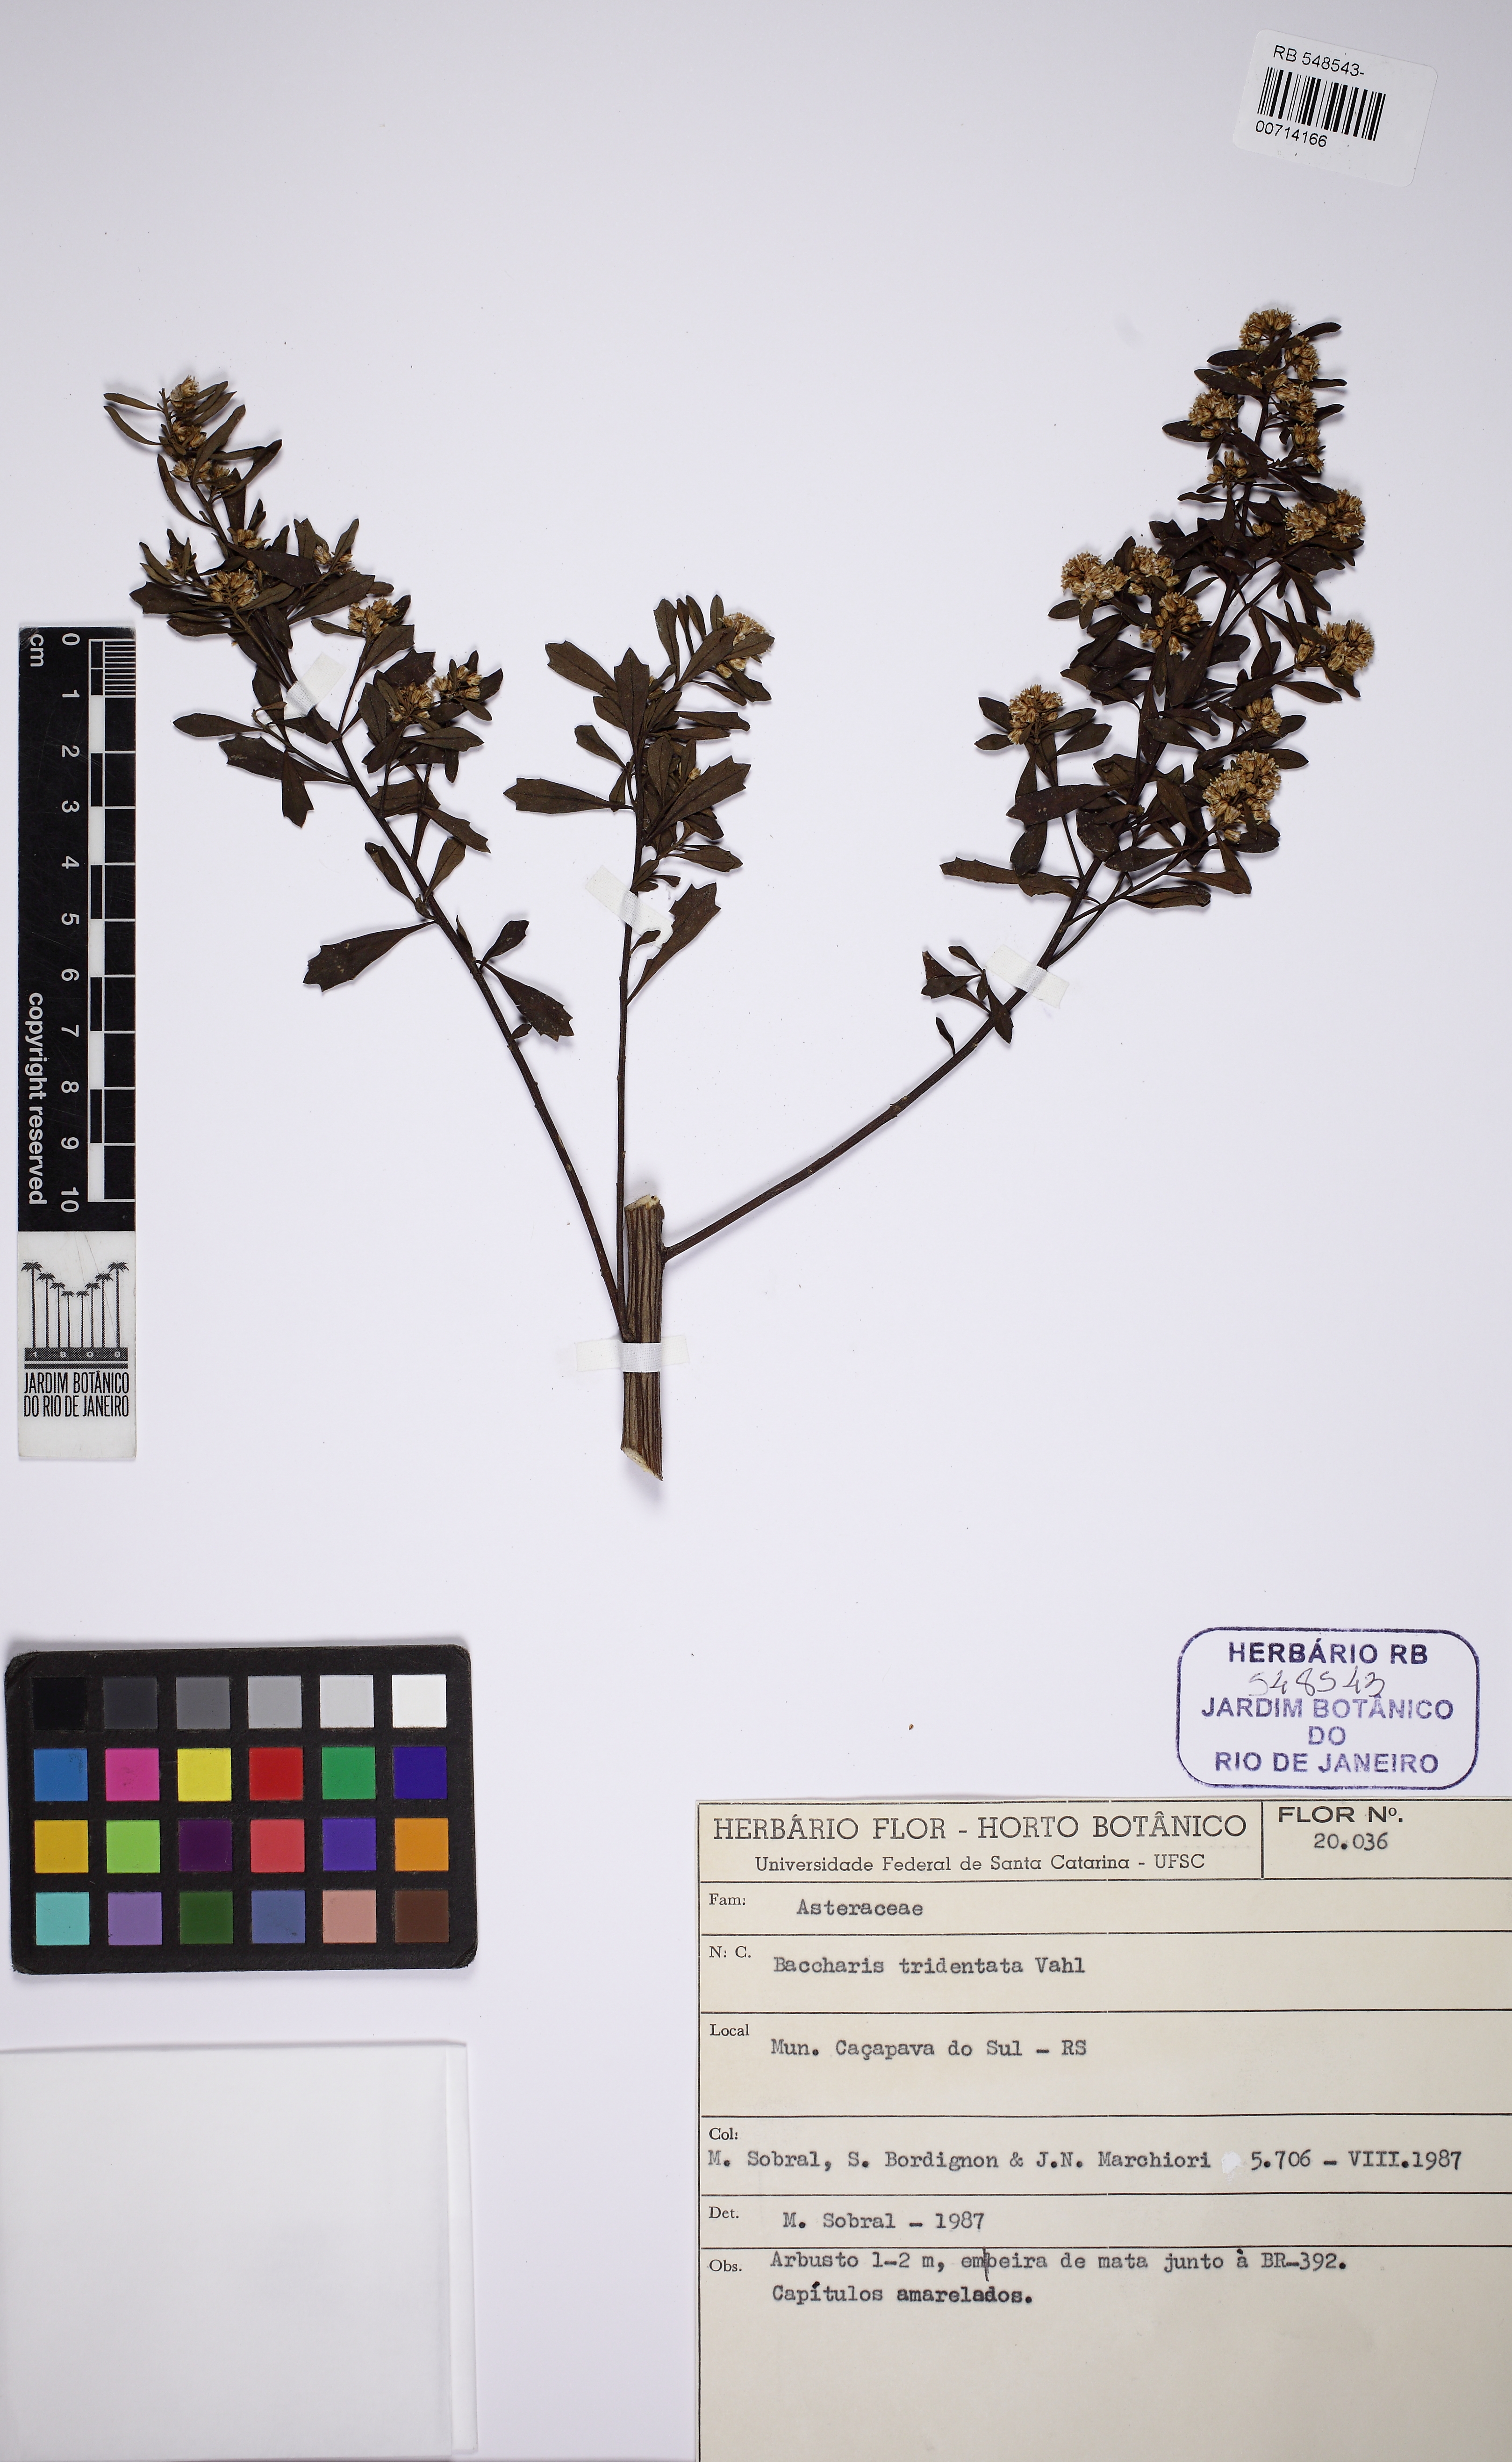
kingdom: Plantae
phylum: Tracheophyta
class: Magnoliopsida
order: Asterales
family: Asteraceae
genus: Baccharis
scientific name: Baccharis tridentata
